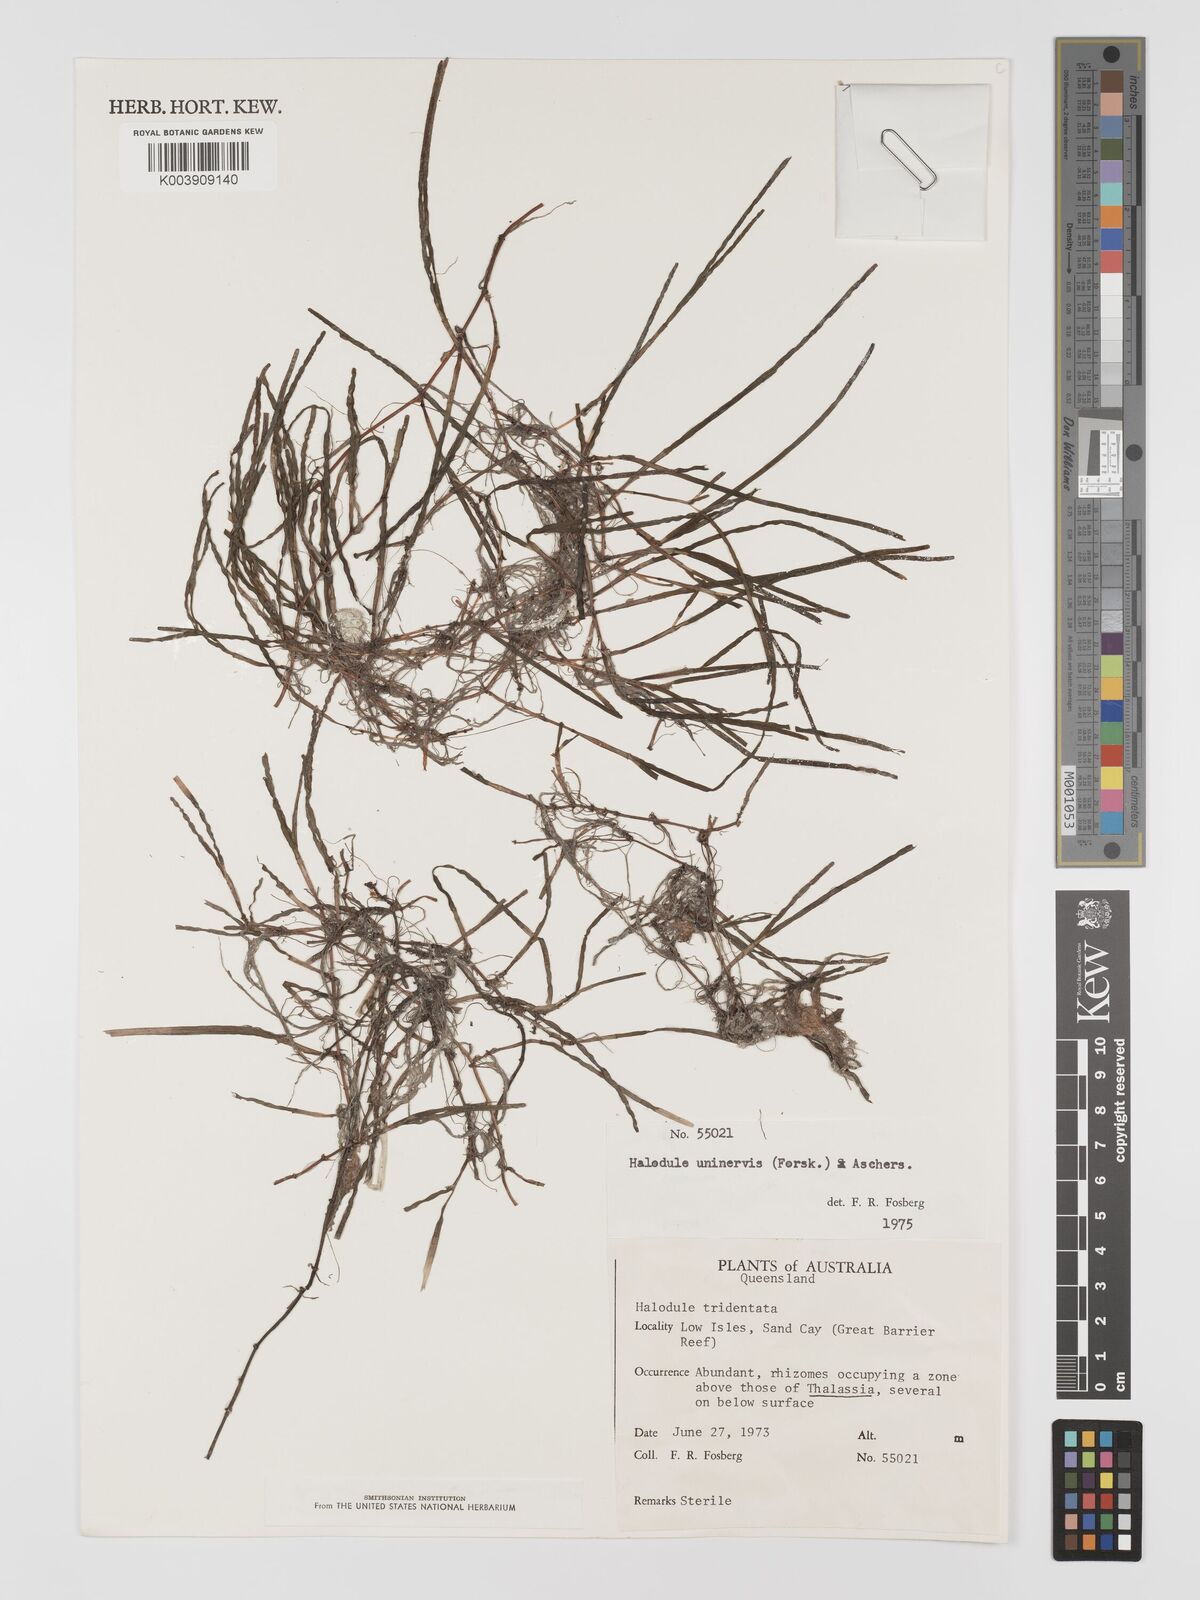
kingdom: Plantae
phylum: Tracheophyta
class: Liliopsida
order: Alismatales
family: Cymodoceaceae
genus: Halodule
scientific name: Halodule uninervis
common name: Narrowleaf seagrass
